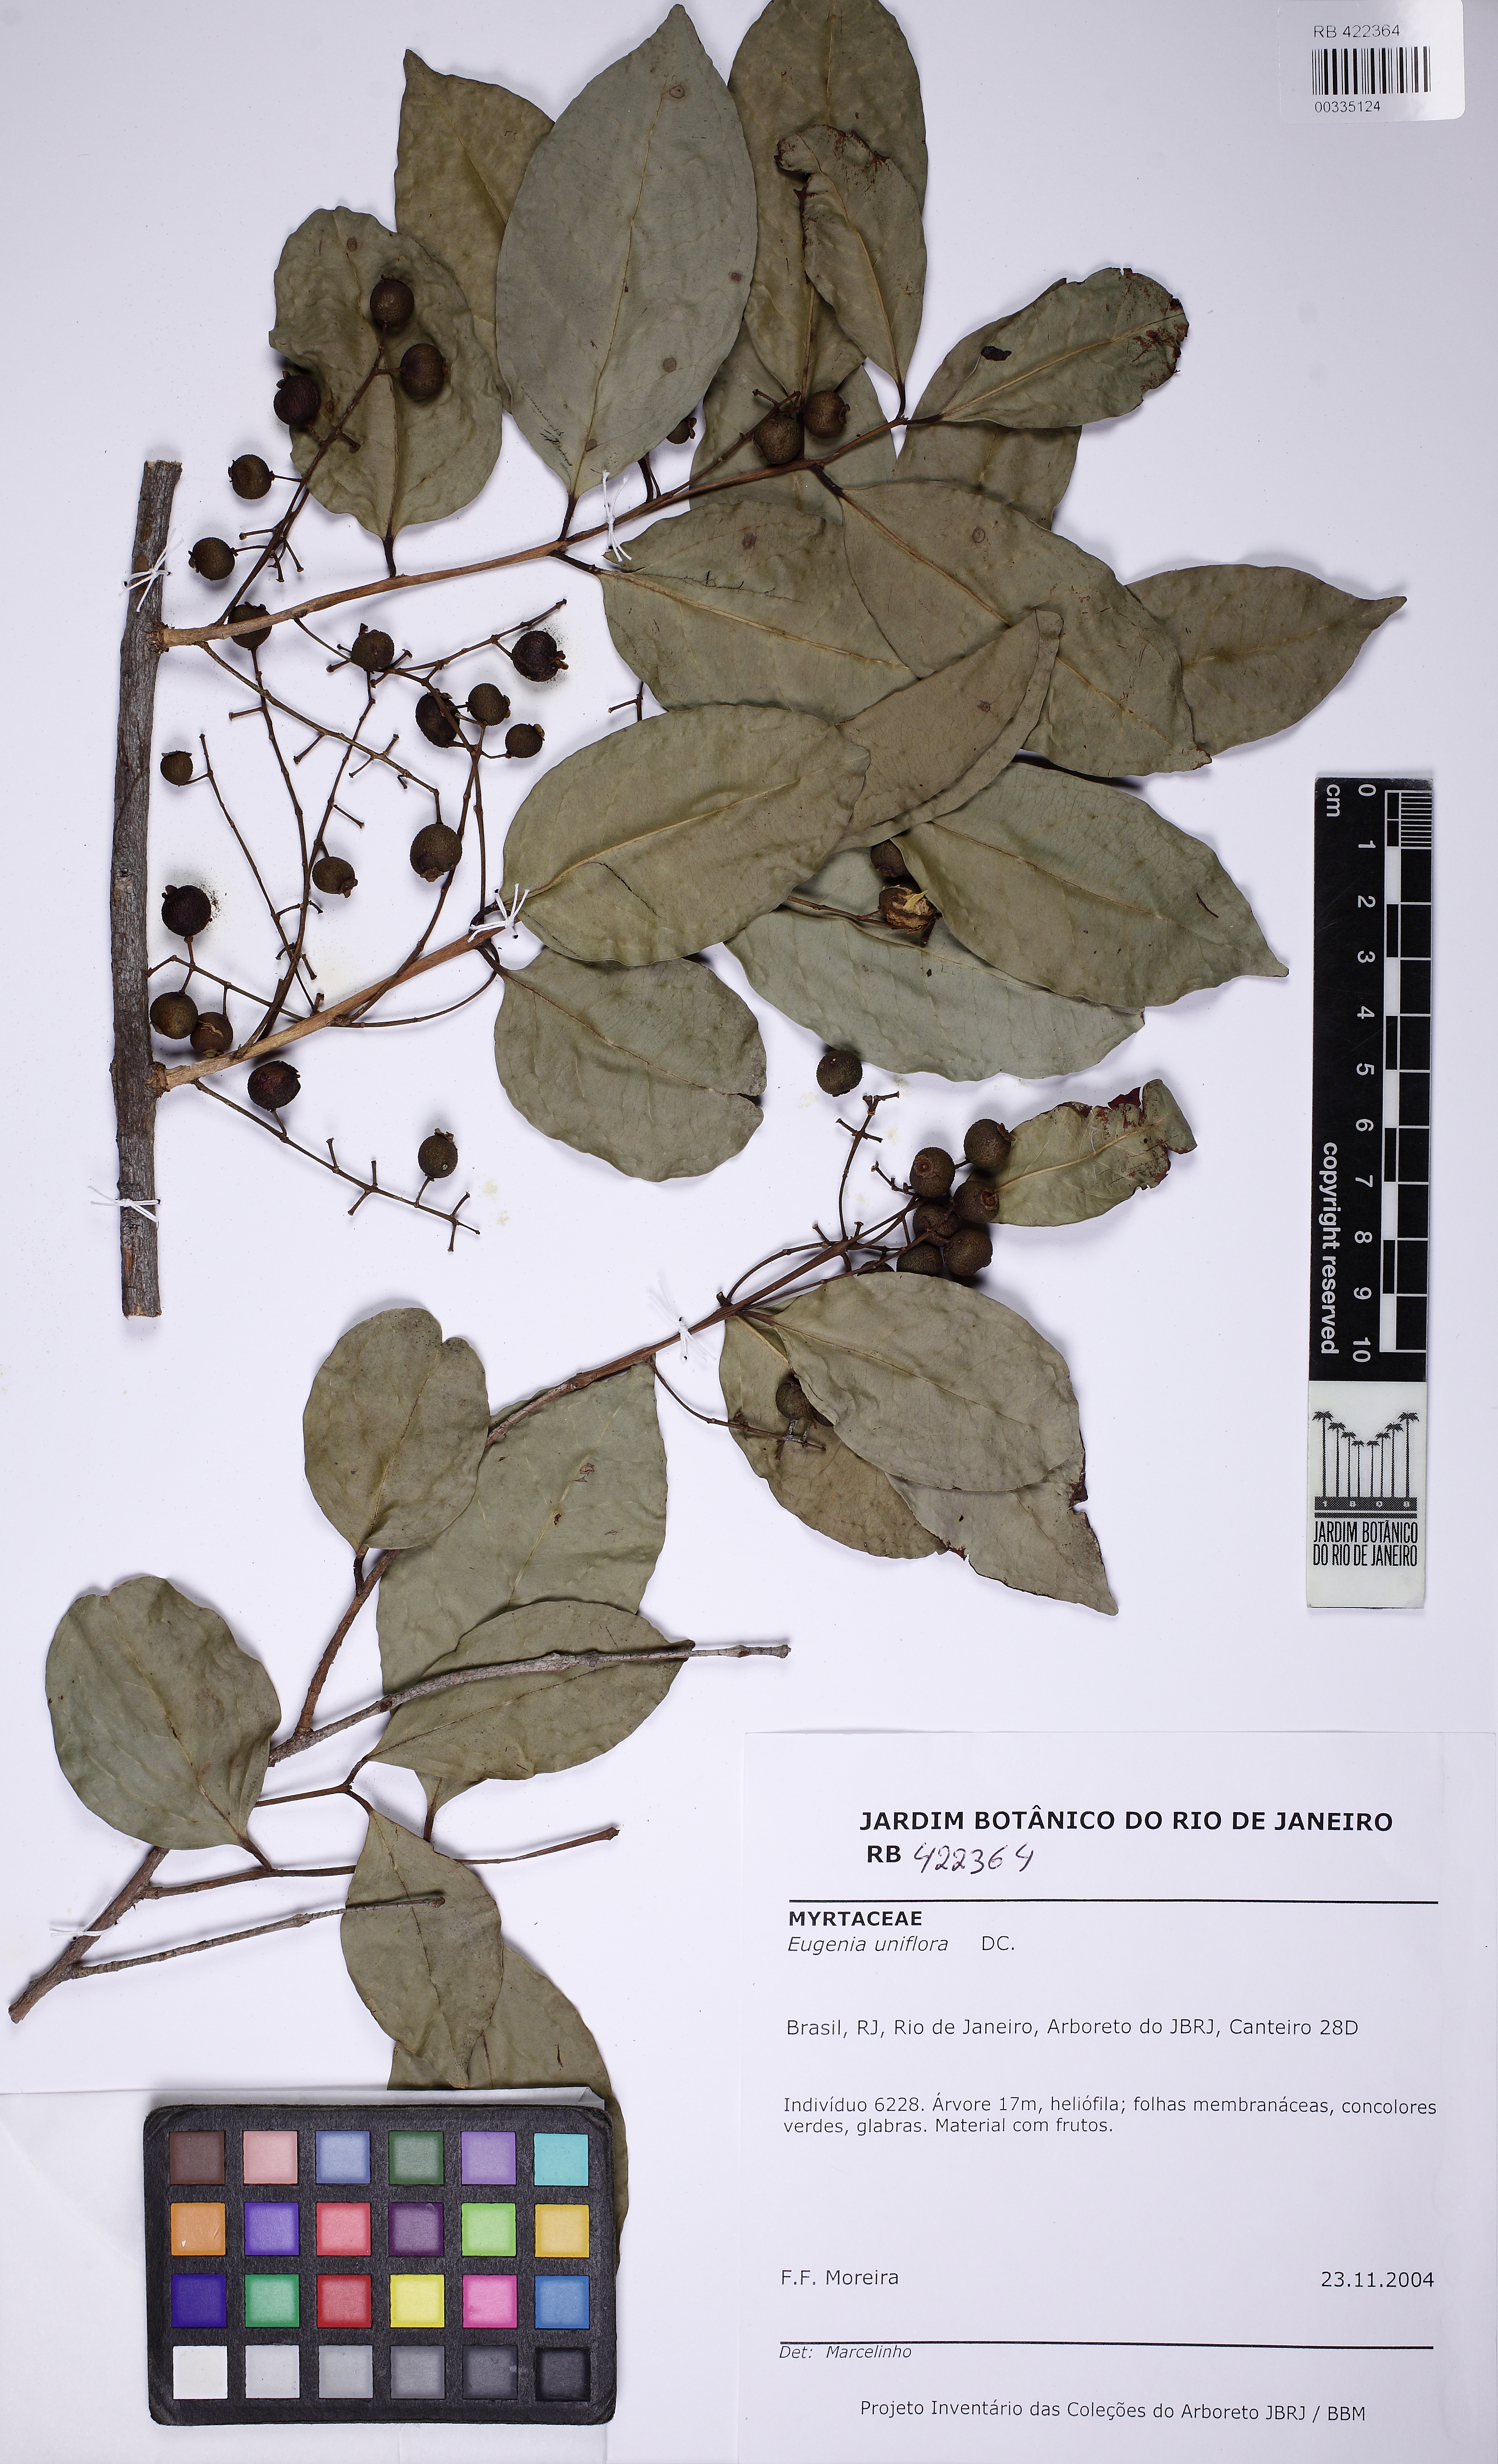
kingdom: Plantae
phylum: Tracheophyta
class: Magnoliopsida
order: Myrtales
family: Myrtaceae
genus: Eugenia
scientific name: Eugenia uniflora
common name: Surinam cherry
